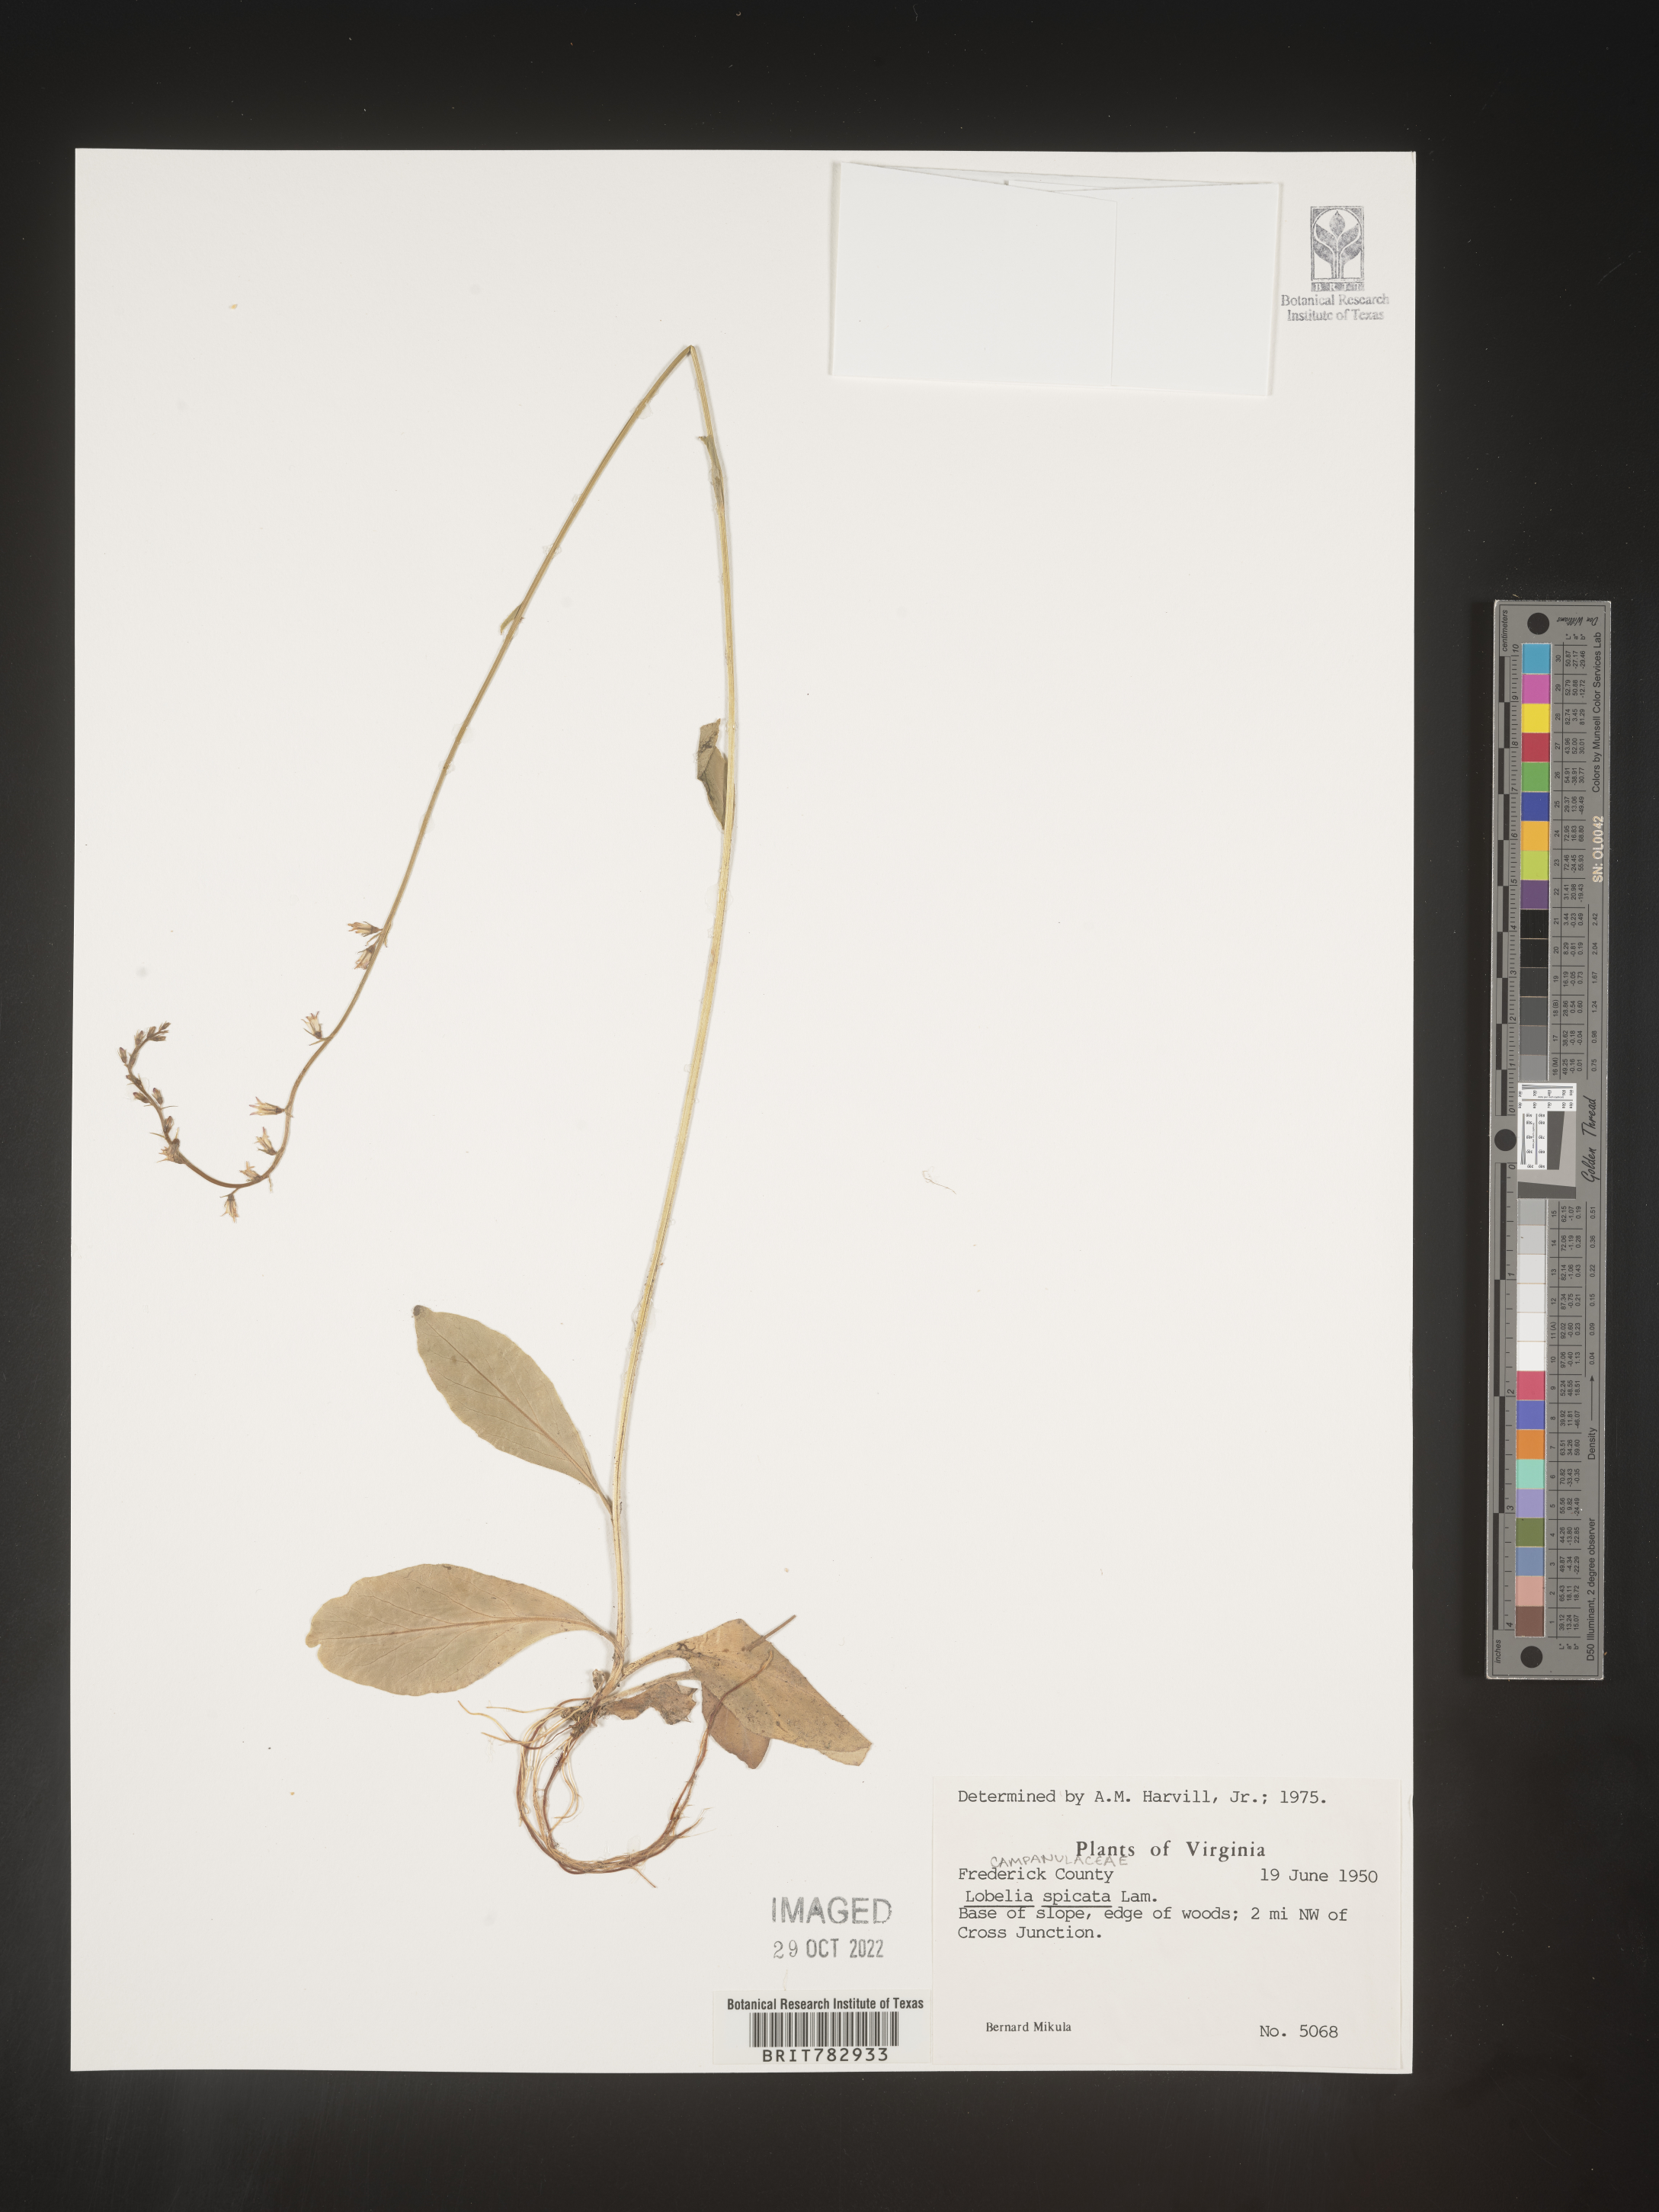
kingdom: Plantae
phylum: Tracheophyta
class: Magnoliopsida
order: Asterales
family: Campanulaceae
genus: Lobelia
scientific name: Lobelia spicata
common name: Pale-spike lobelia
